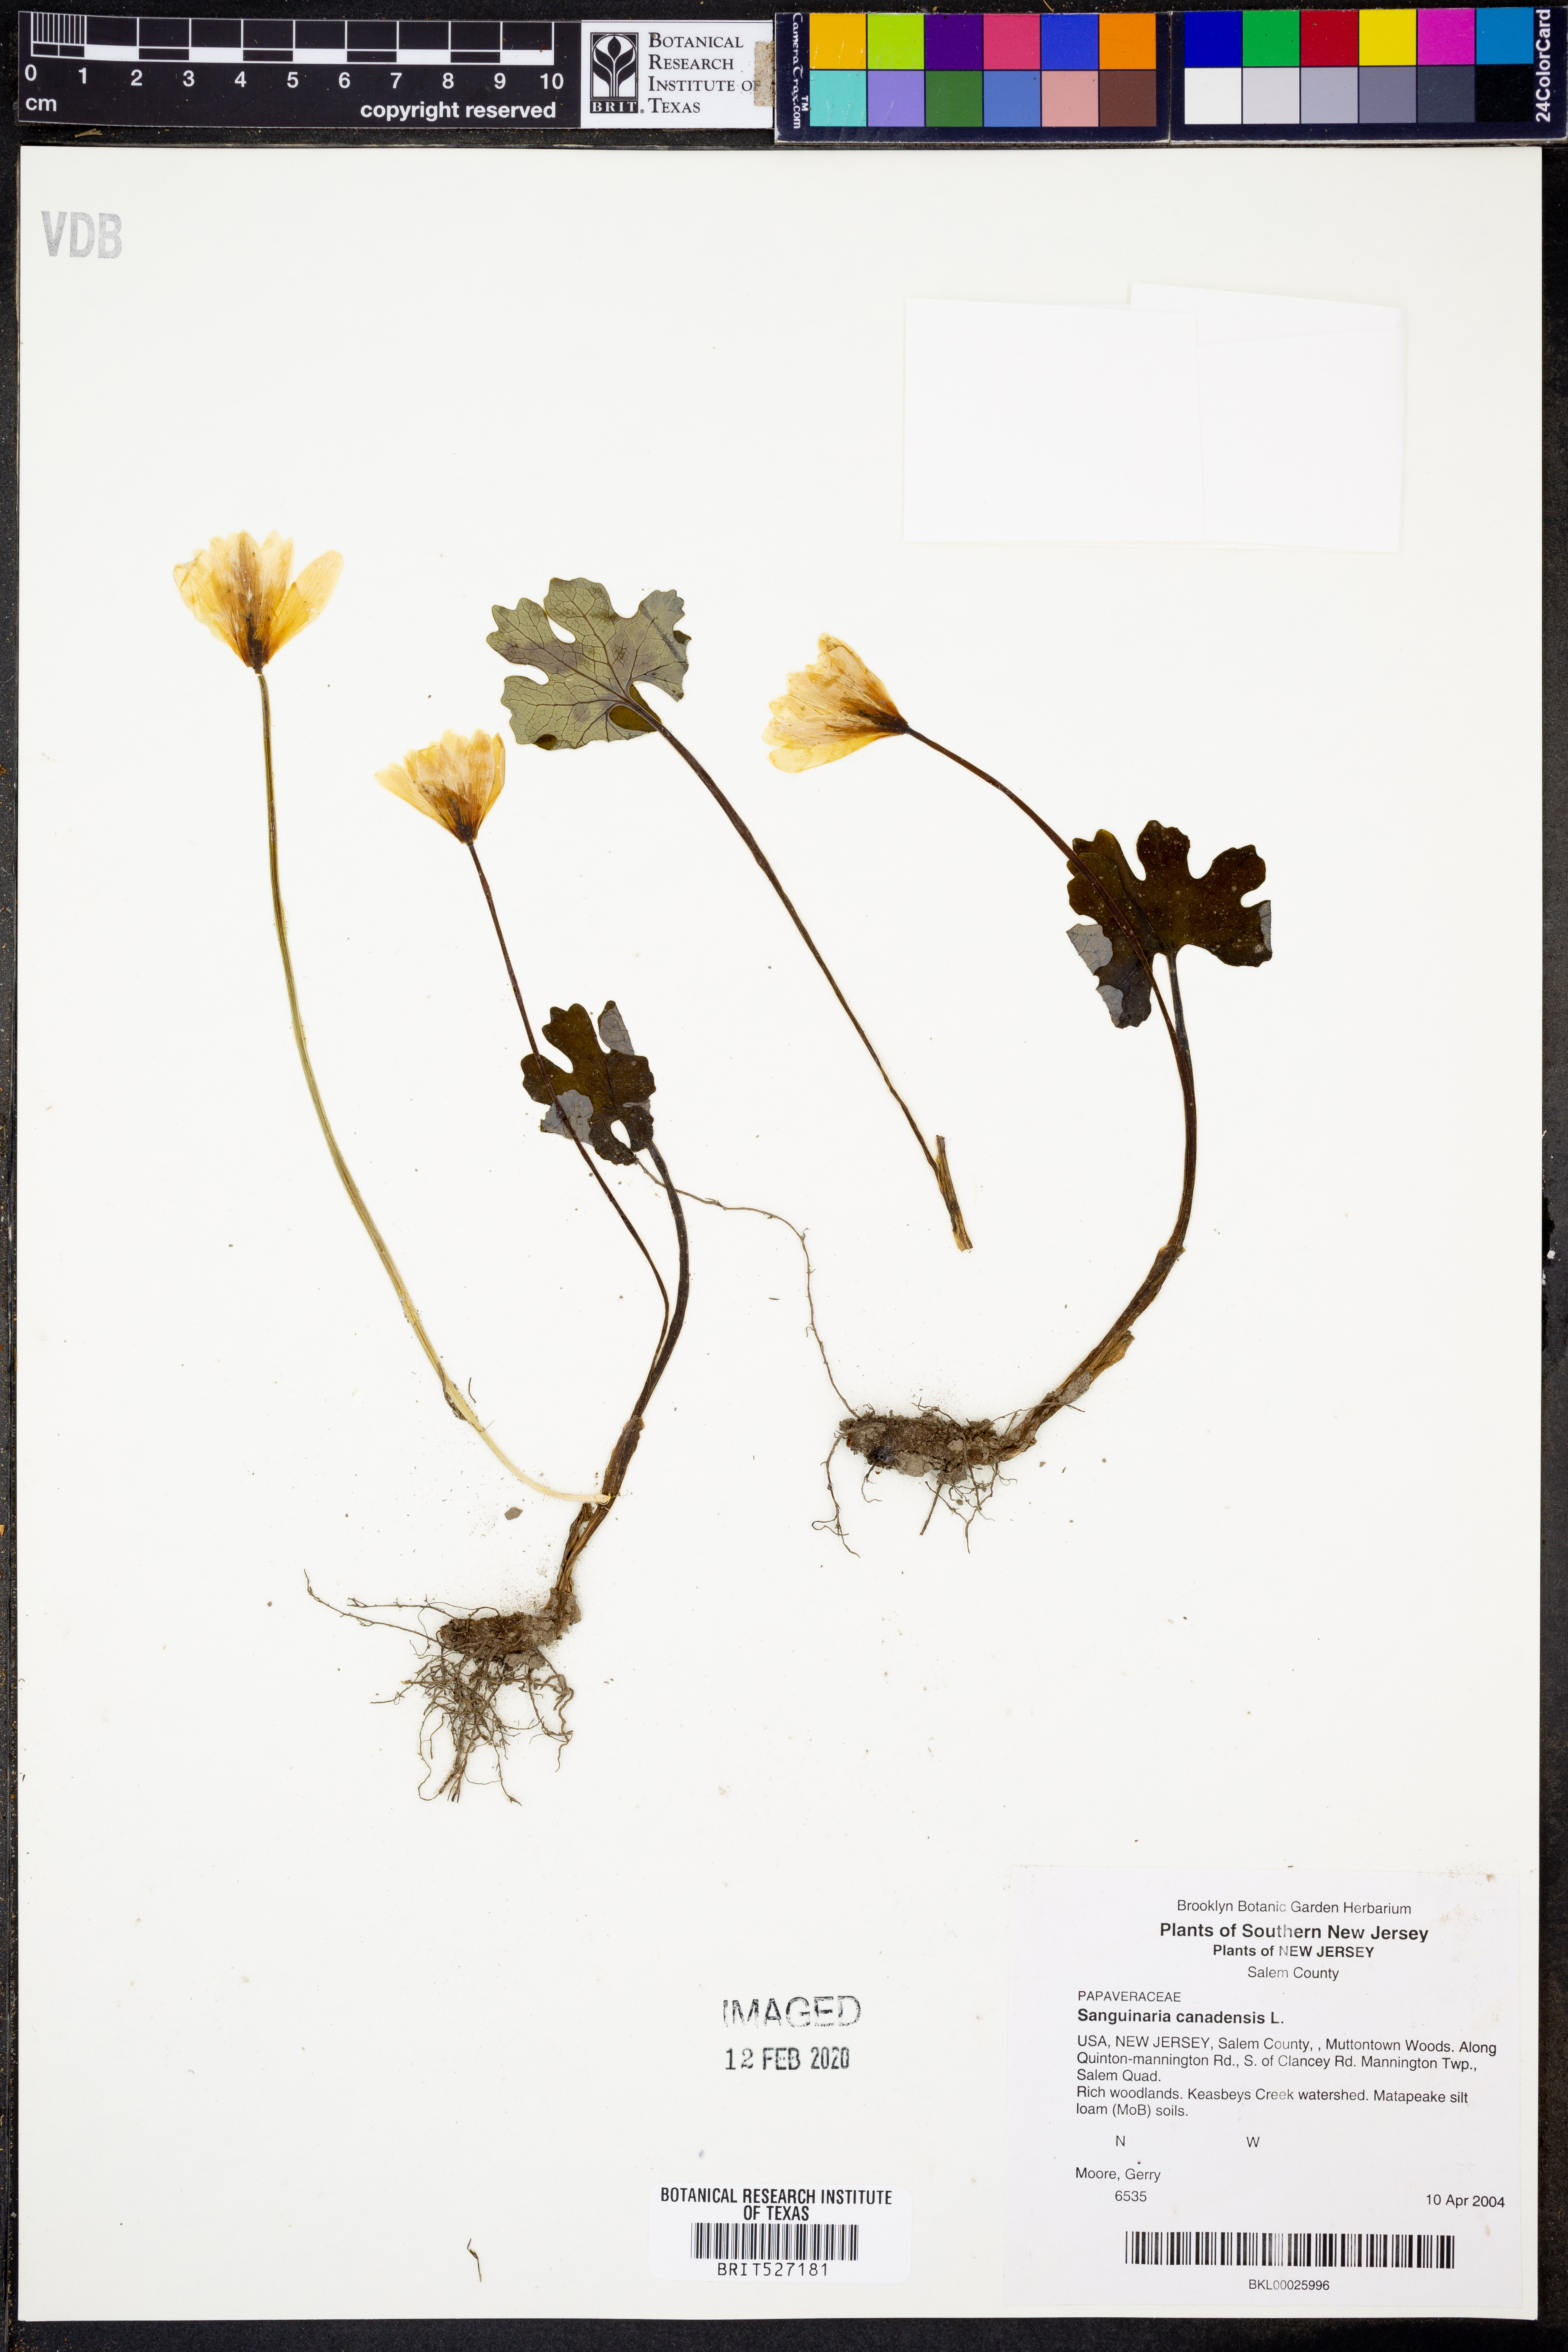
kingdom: Plantae
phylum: Tracheophyta
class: Magnoliopsida
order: Ranunculales
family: Papaveraceae
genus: Sanguinaria
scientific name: Sanguinaria canadensis
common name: Bloodroot
